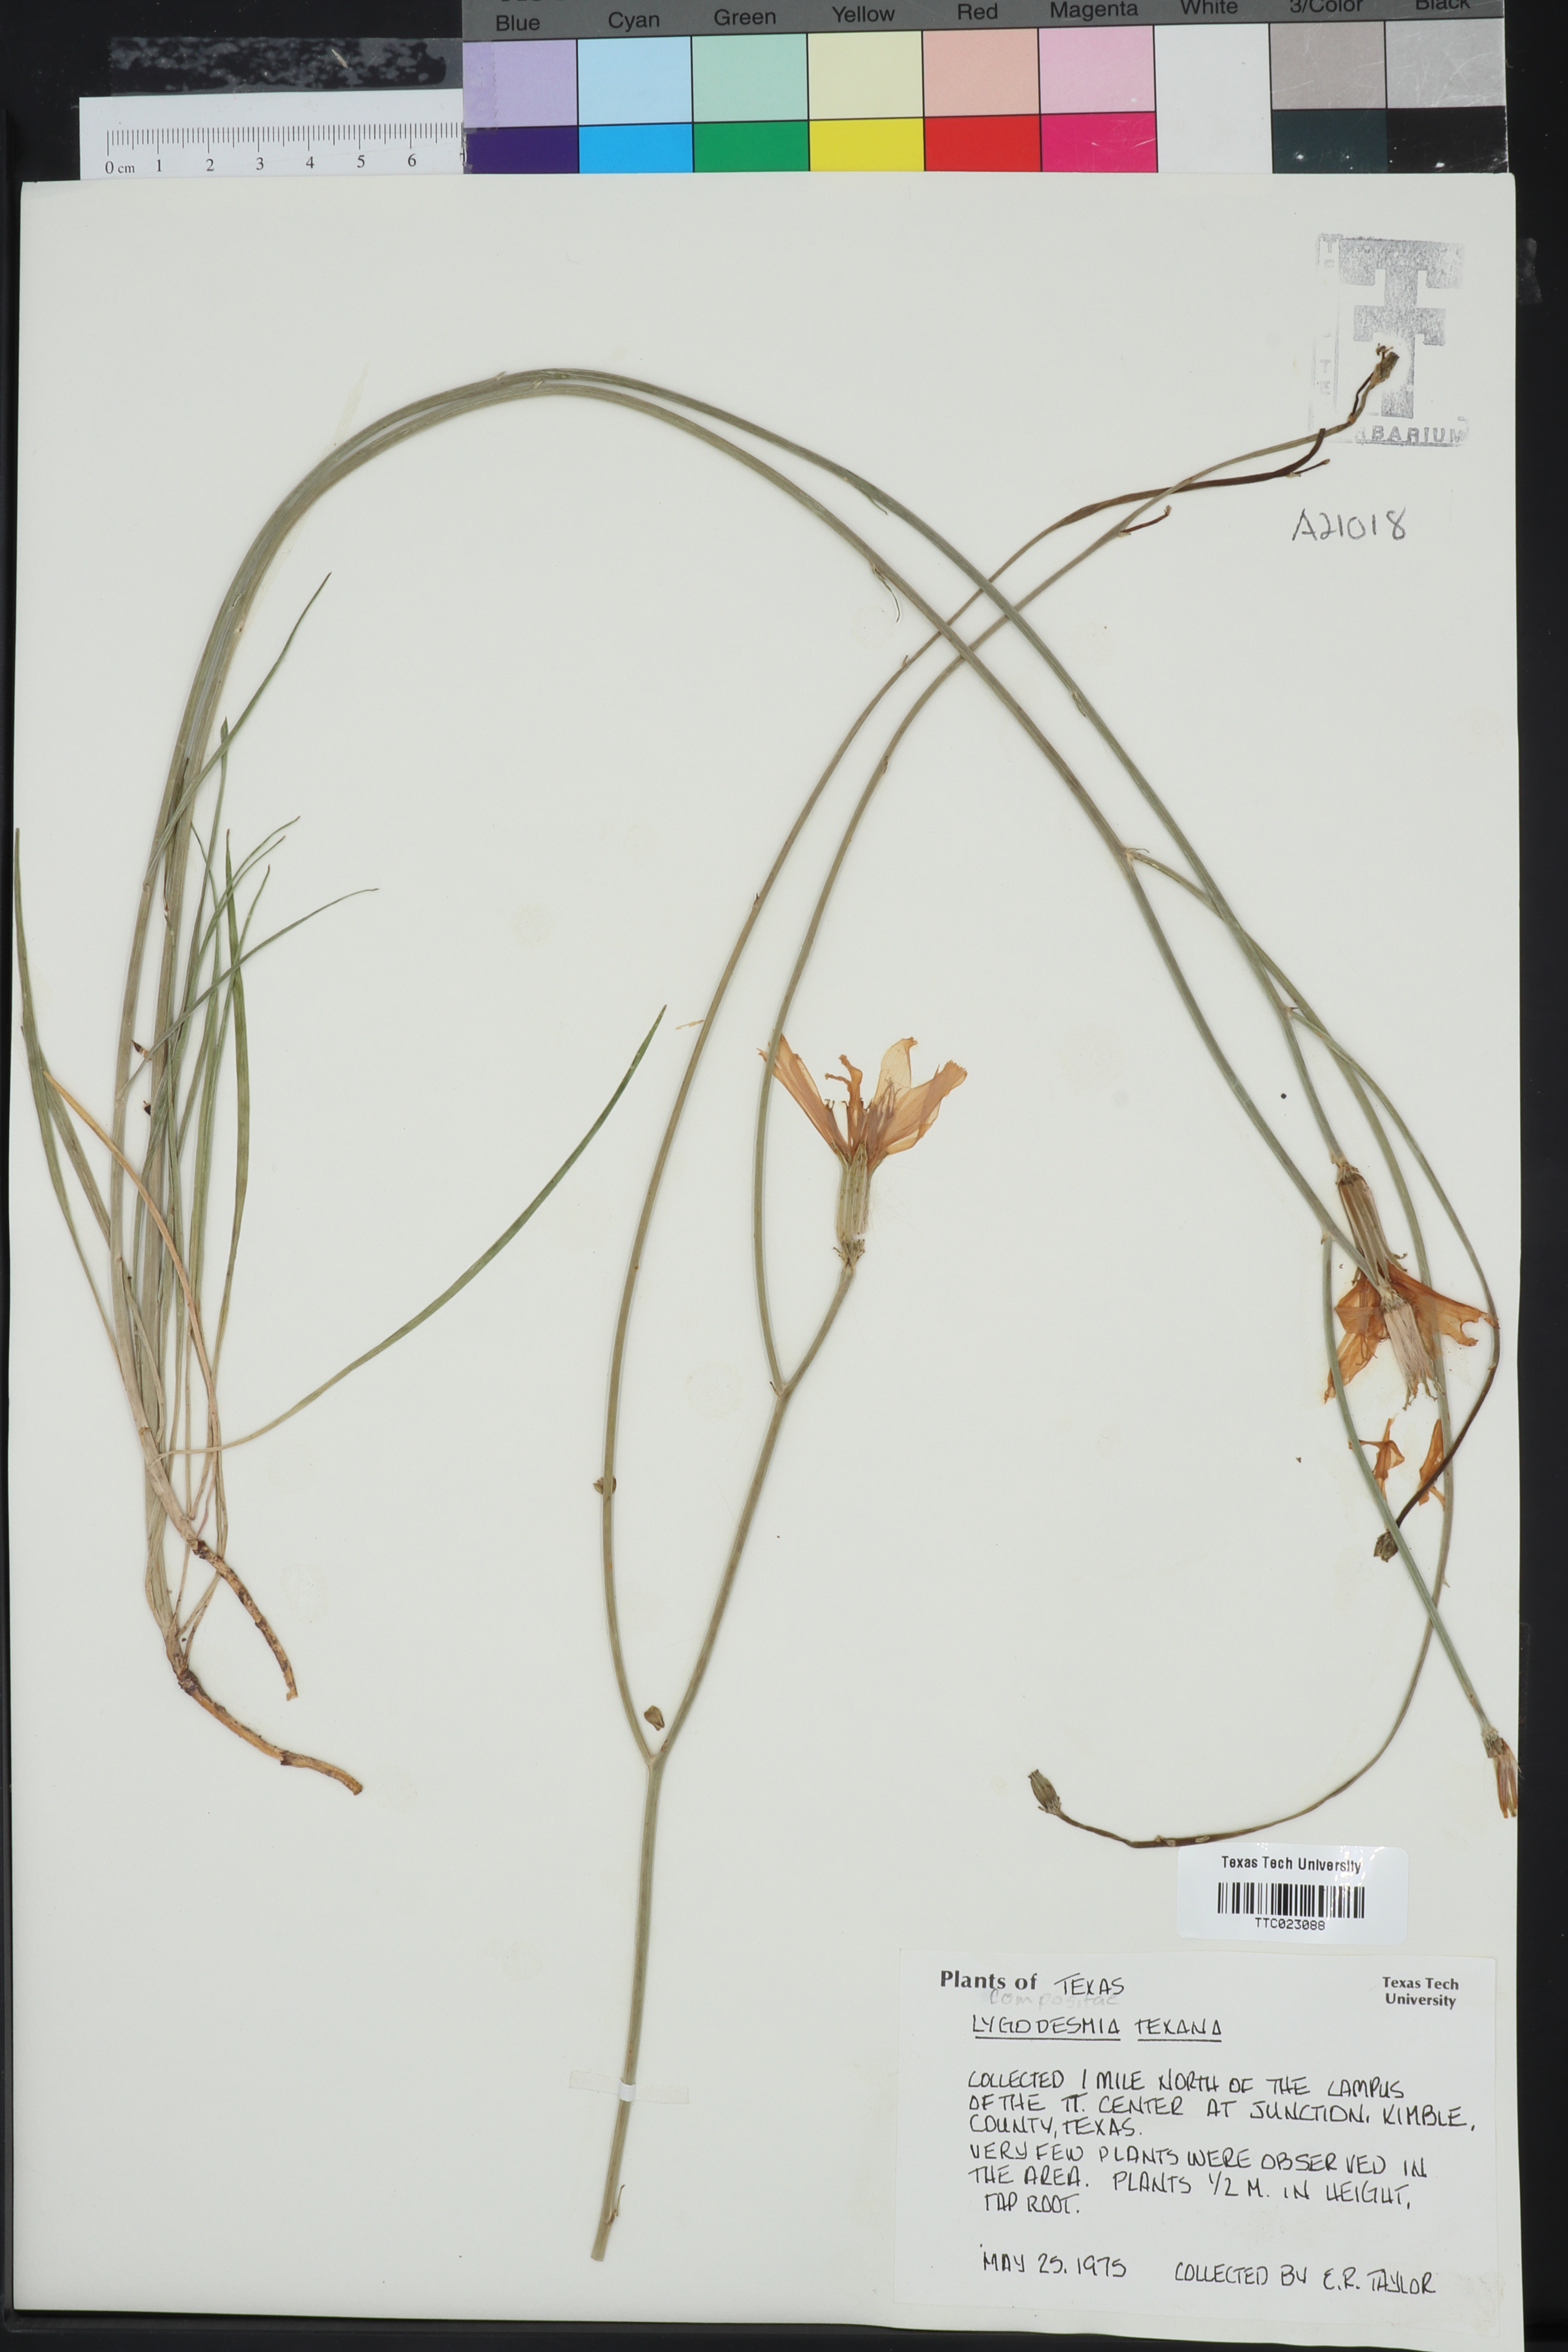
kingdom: Plantae
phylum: Tracheophyta
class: Magnoliopsida
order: Asterales
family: Asteraceae
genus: Lygodesmia
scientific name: Lygodesmia texana
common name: Texas skeleton-plant
